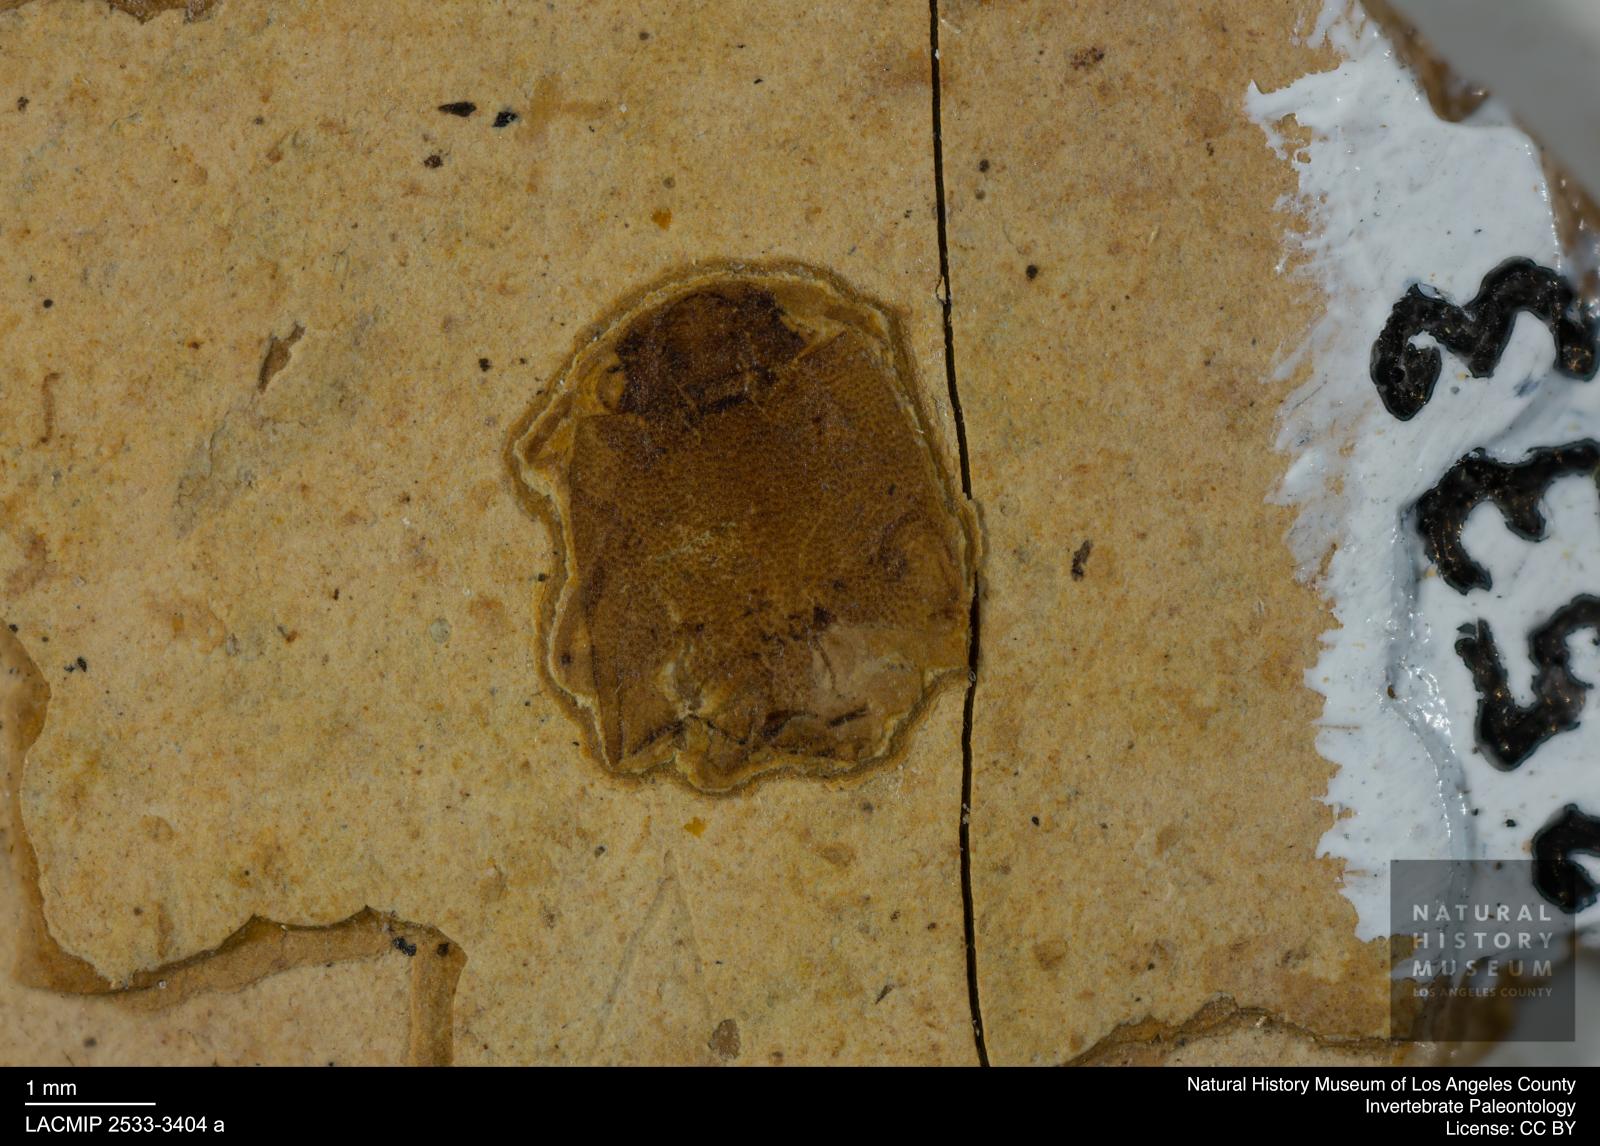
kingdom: Animalia
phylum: Arthropoda
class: Insecta
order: Coleoptera
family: Elateridae
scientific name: Elateridae
